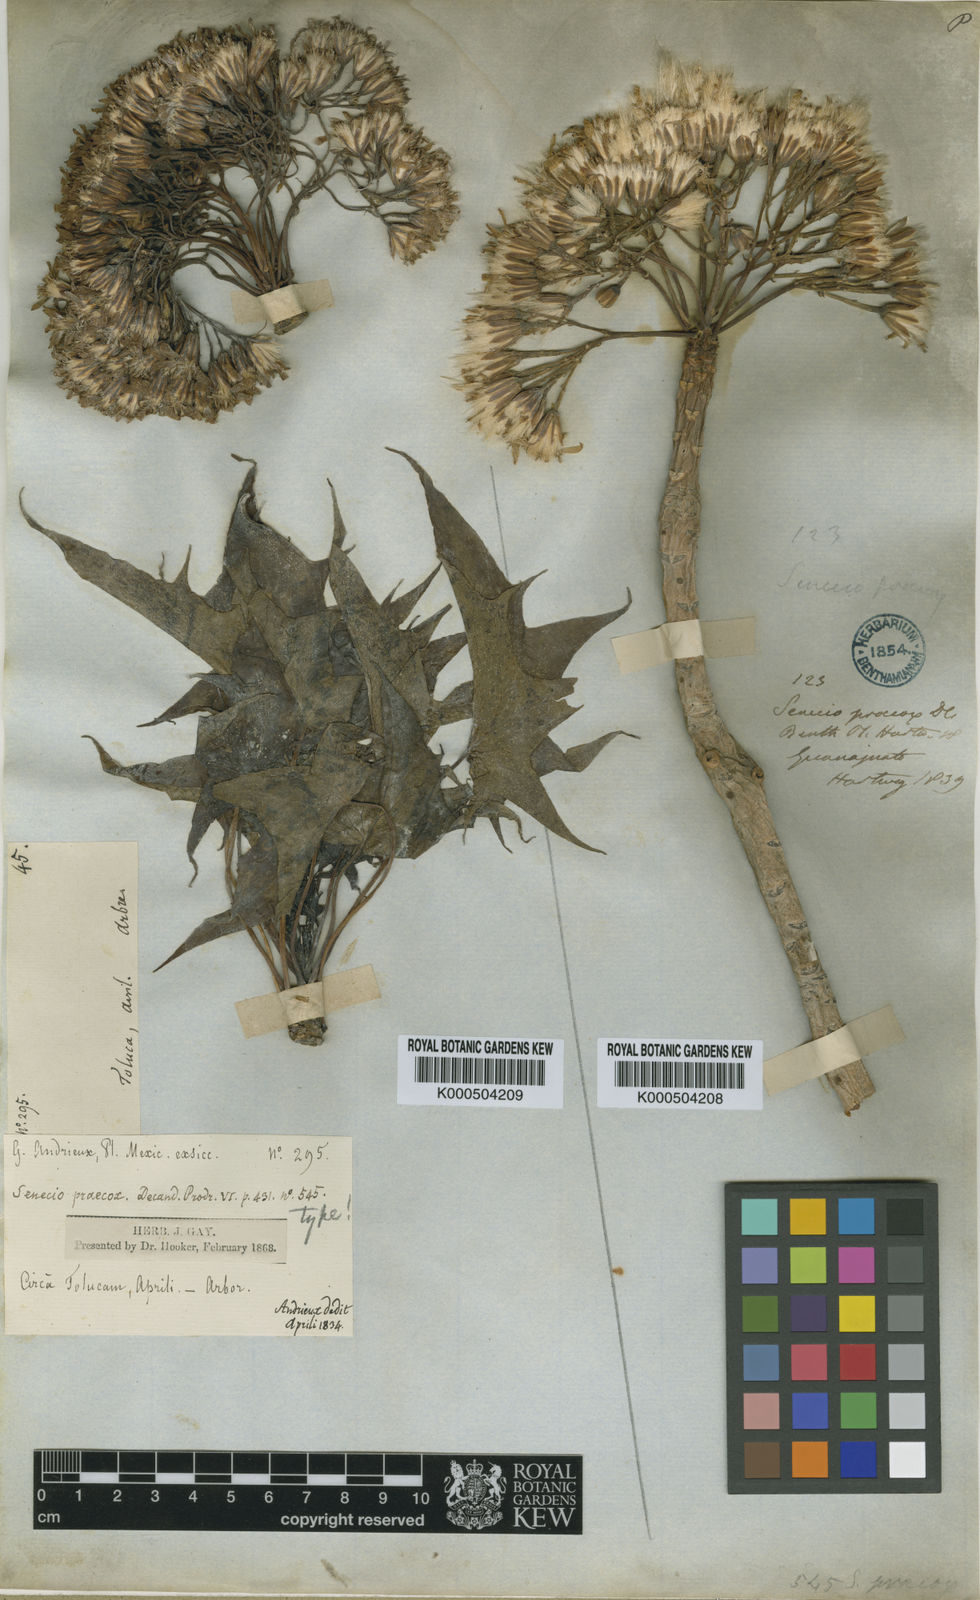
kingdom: Plantae
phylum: Tracheophyta
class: Magnoliopsida
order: Asterales
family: Asteraceae
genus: Pittocaulon
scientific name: Pittocaulon praecox
